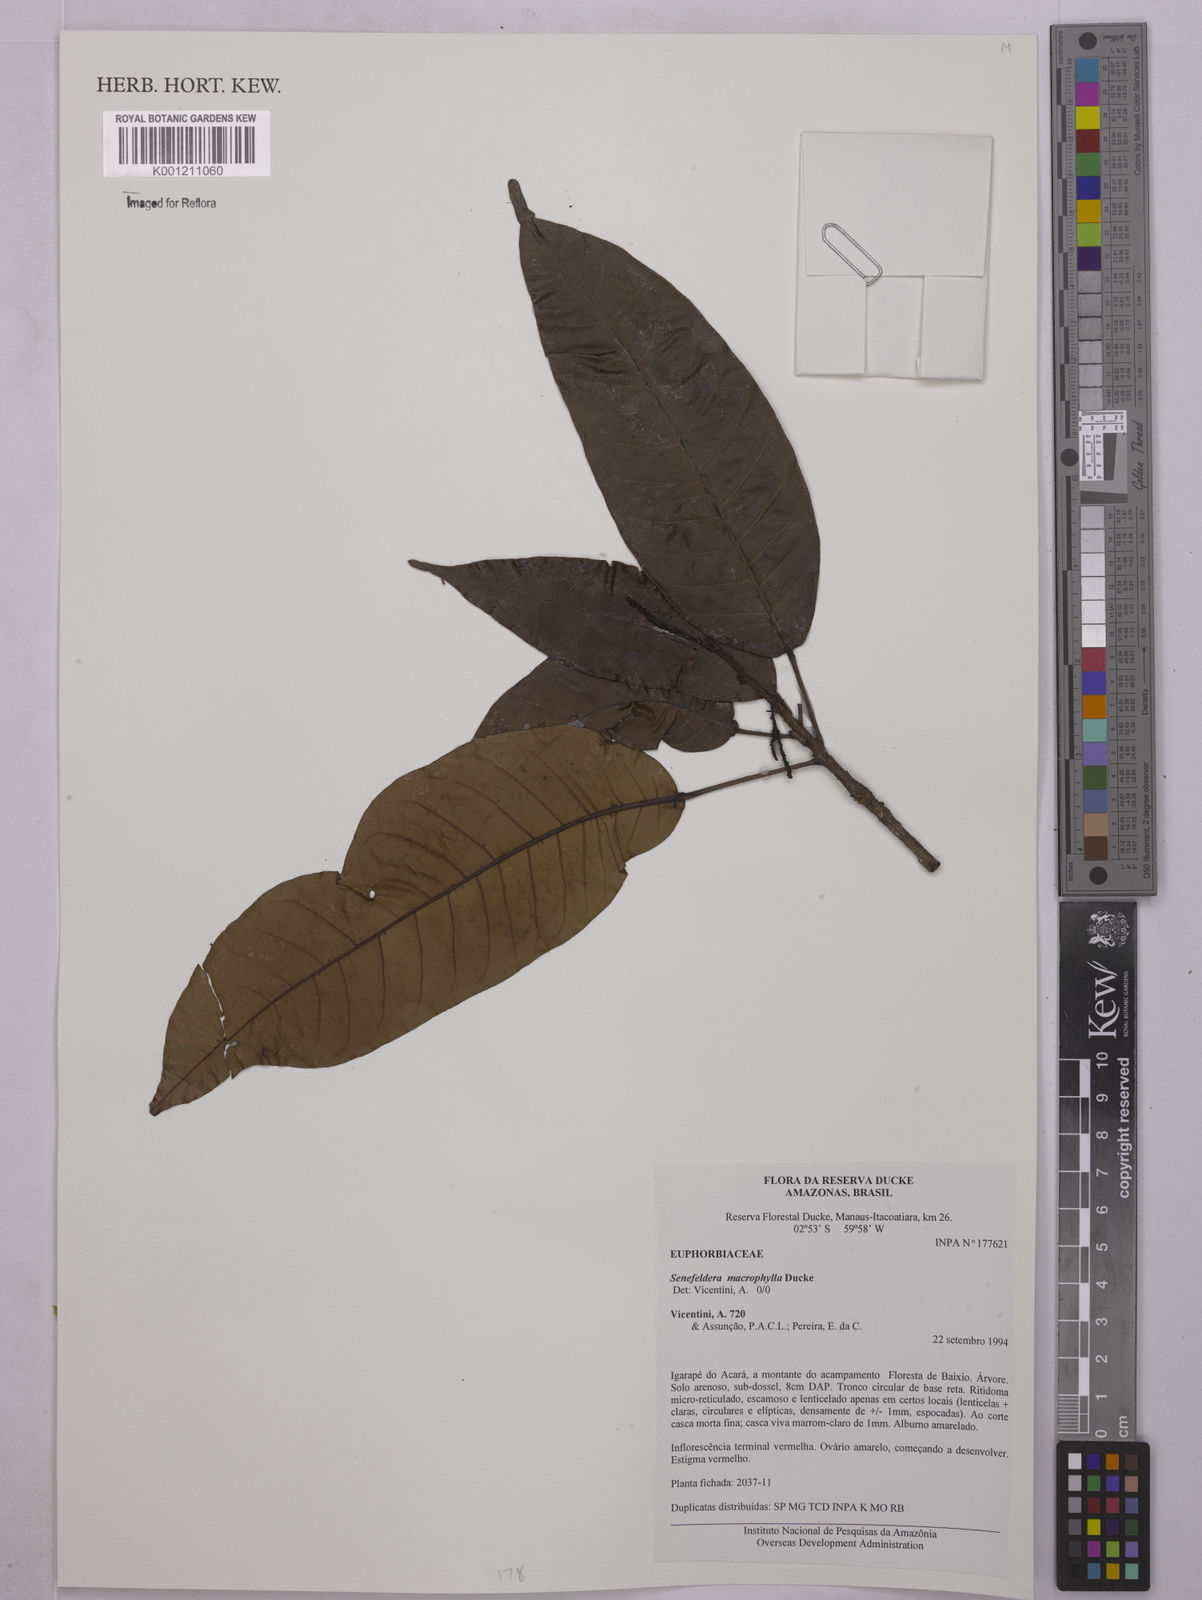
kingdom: Plantae
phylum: Tracheophyta
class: Magnoliopsida
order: Malpighiales
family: Euphorbiaceae
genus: Rhodothyrsus
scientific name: Rhodothyrsus macrophyllus
